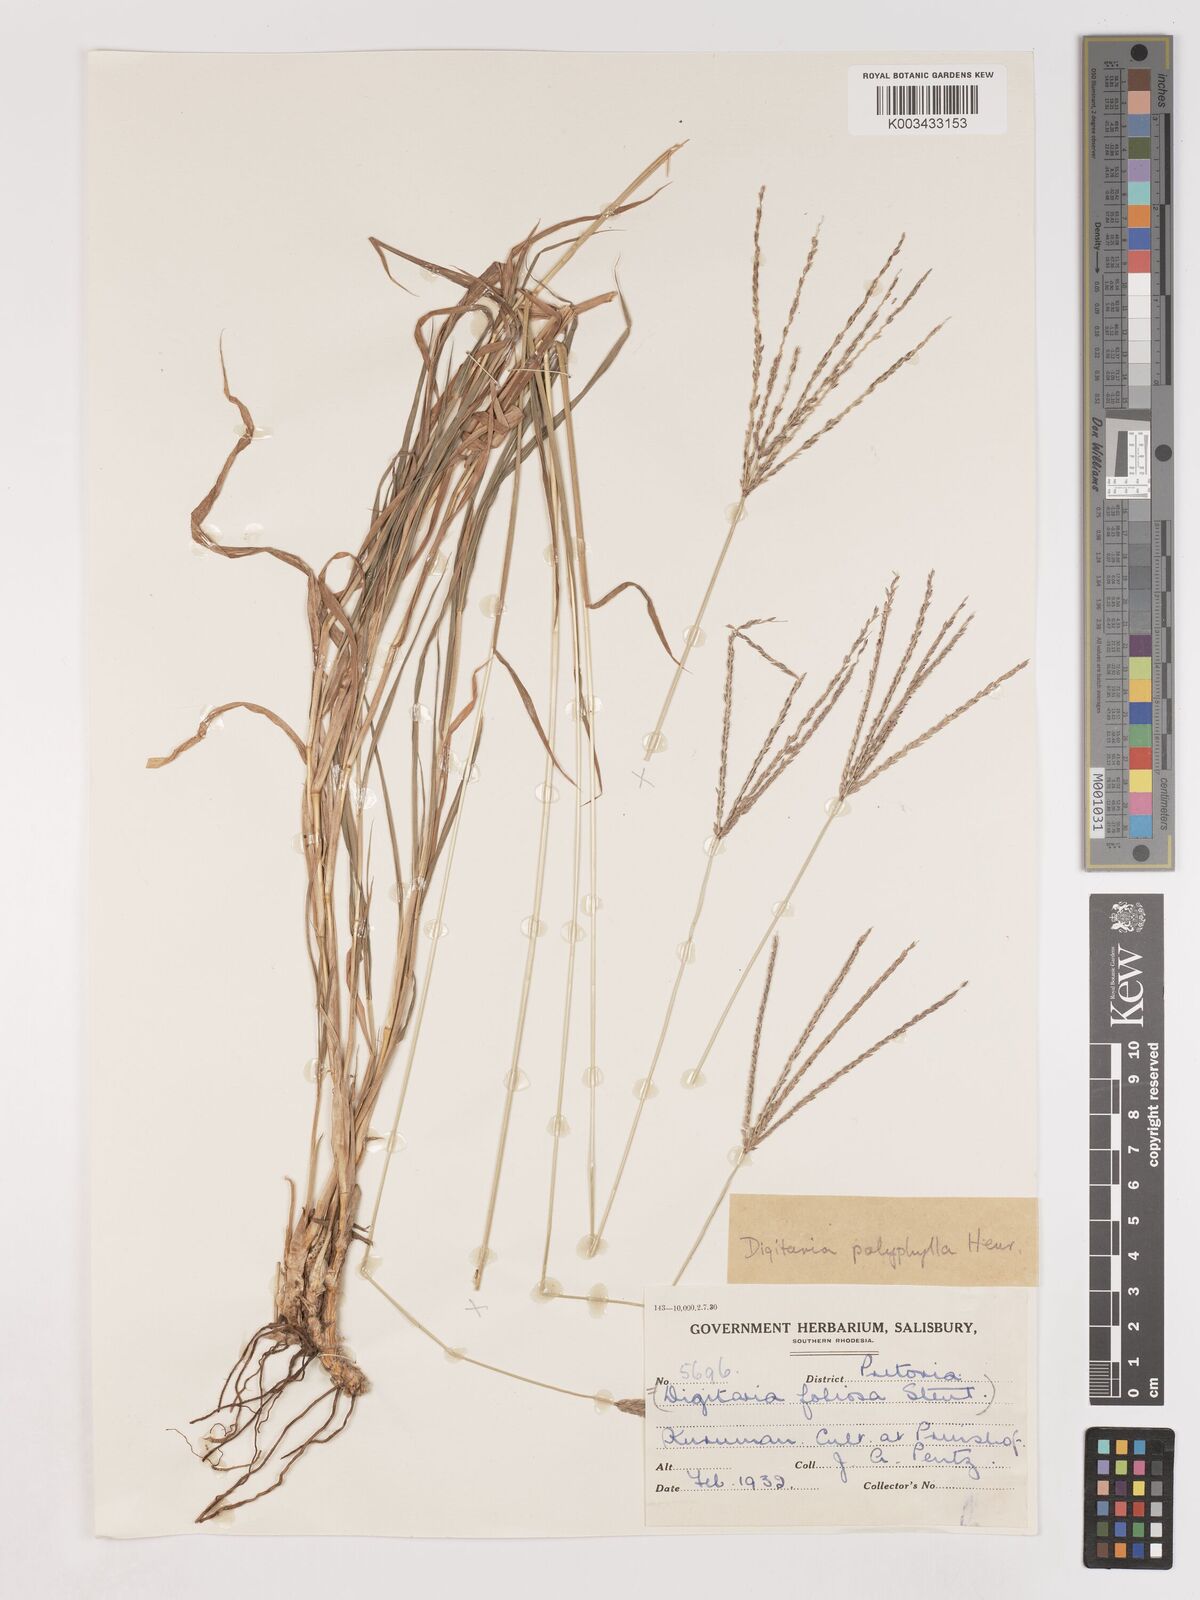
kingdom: Plantae
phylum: Tracheophyta
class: Liliopsida
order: Poales
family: Poaceae
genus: Digitaria
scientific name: Digitaria polyphylla
